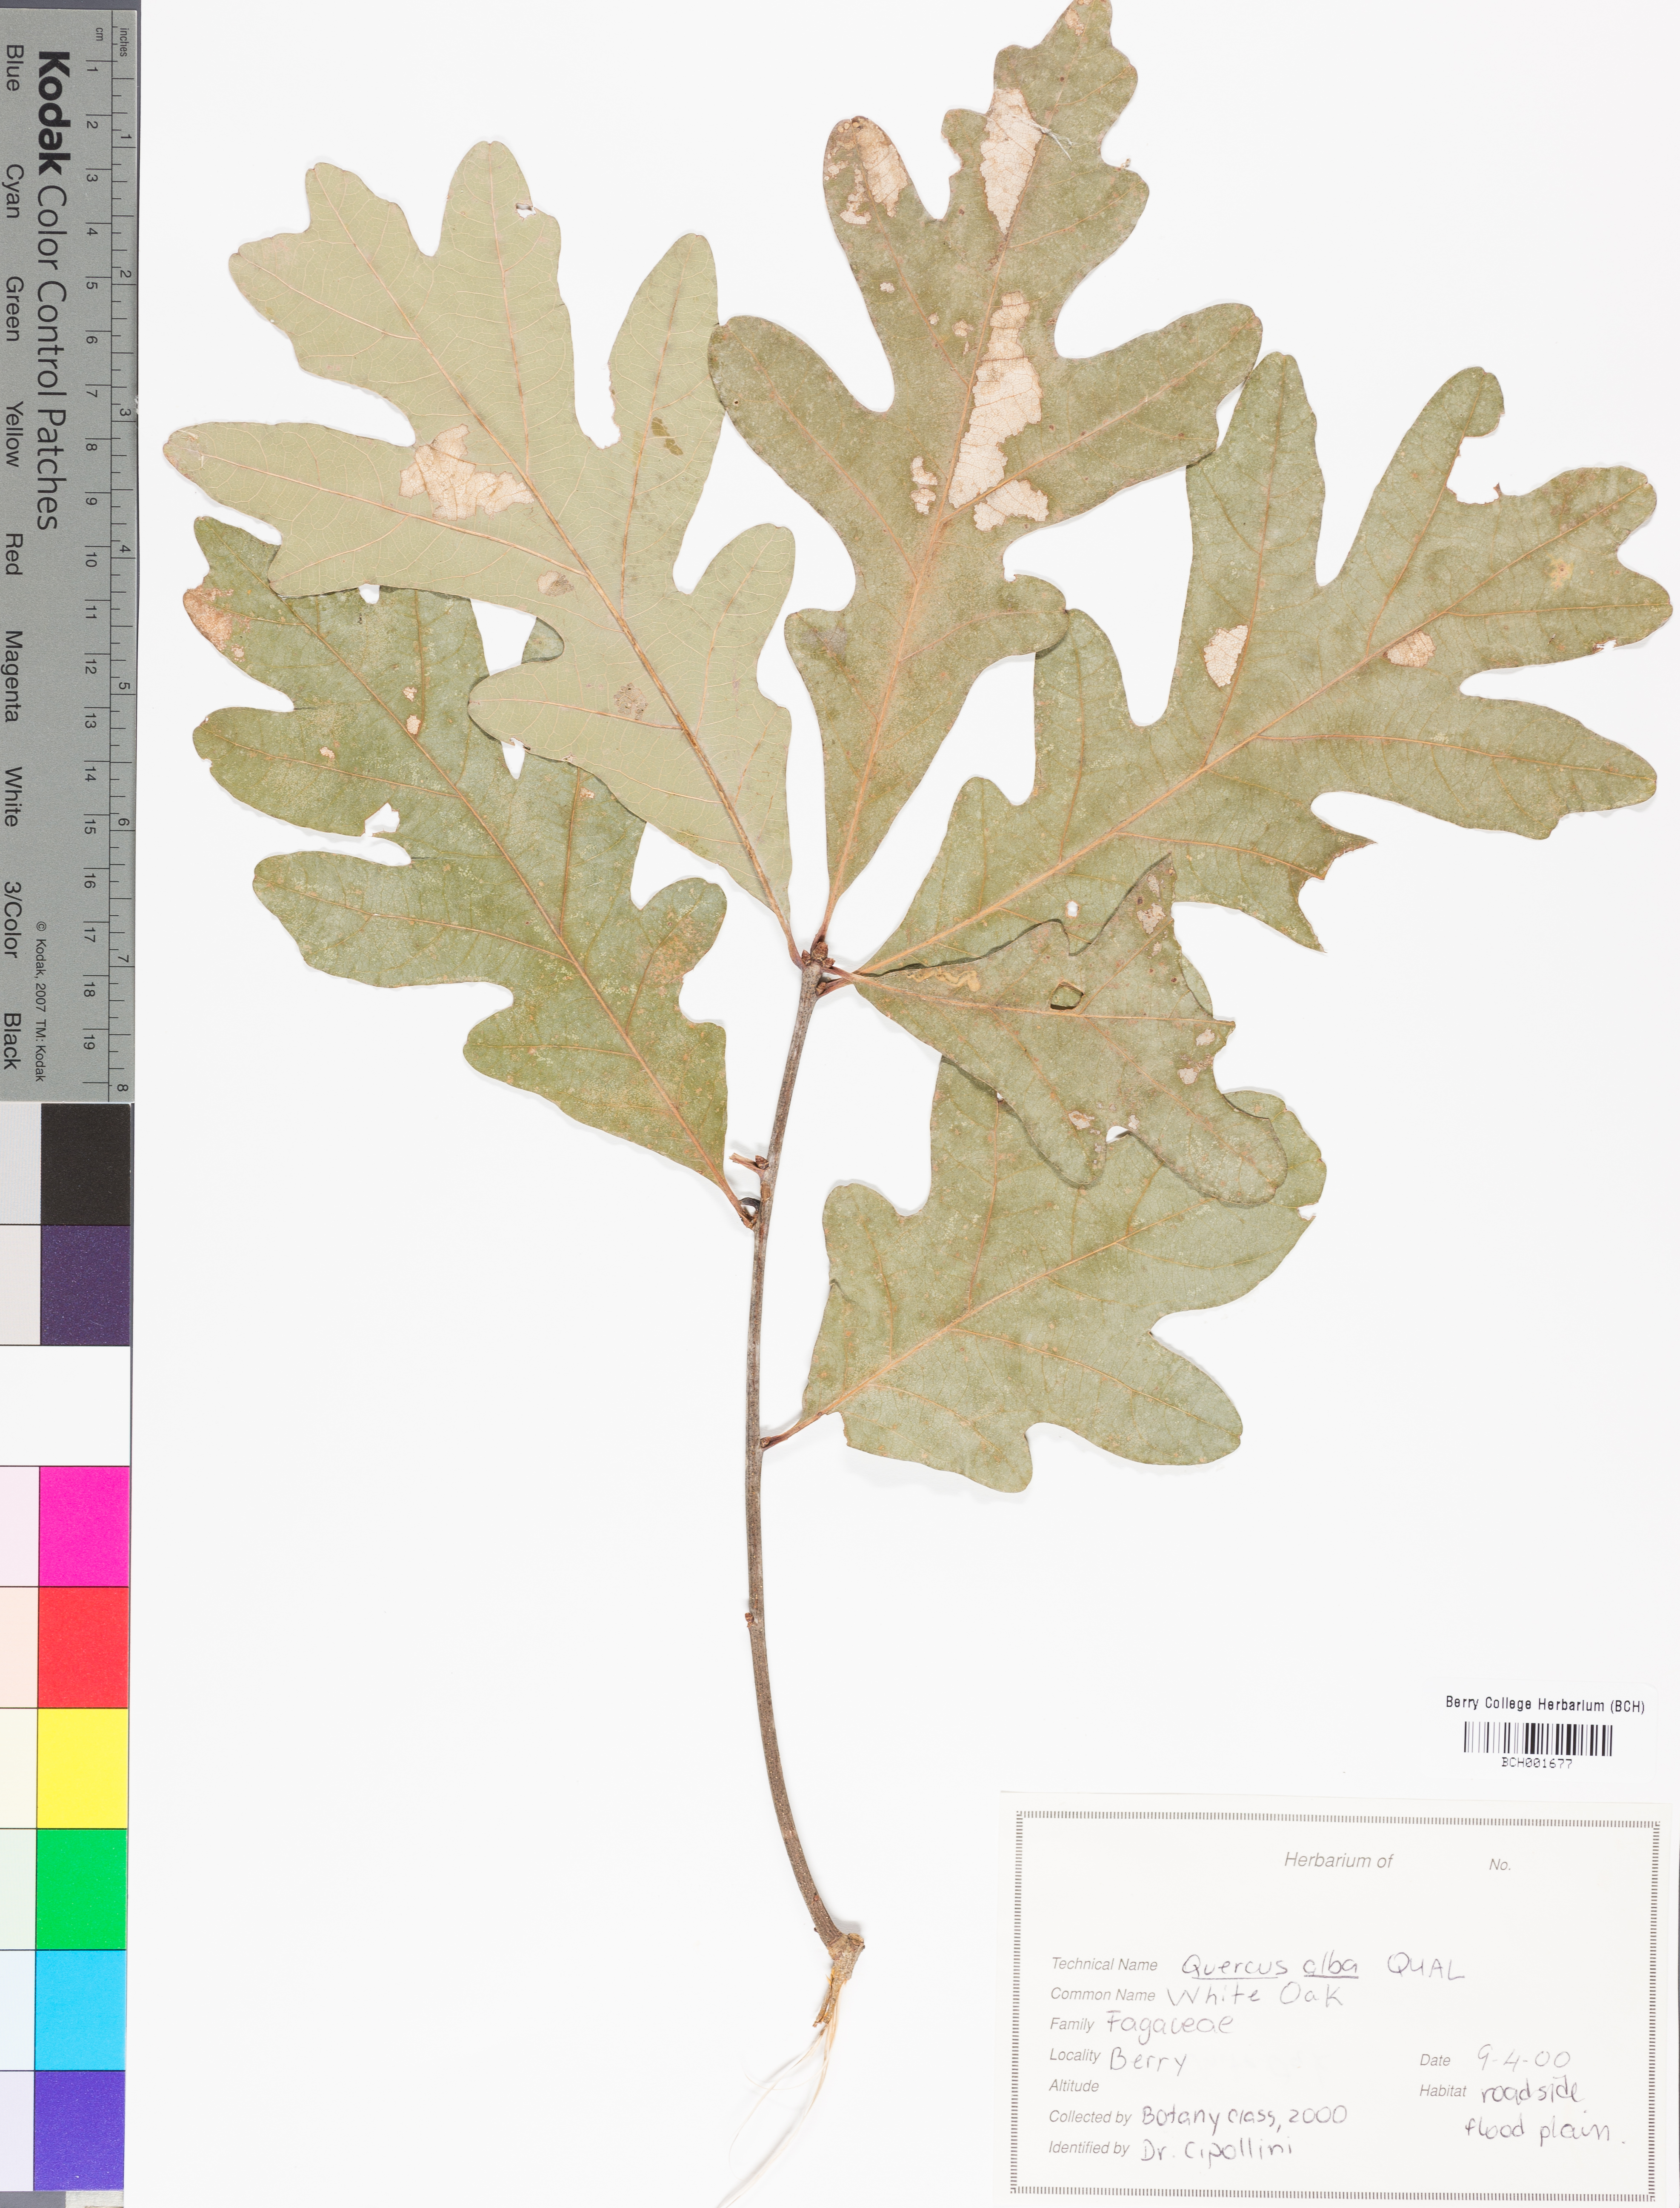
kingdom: Plantae
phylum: Tracheophyta
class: Magnoliopsida
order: Fagales
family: Fagaceae
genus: Quercus
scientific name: Quercus alba
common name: White oak
